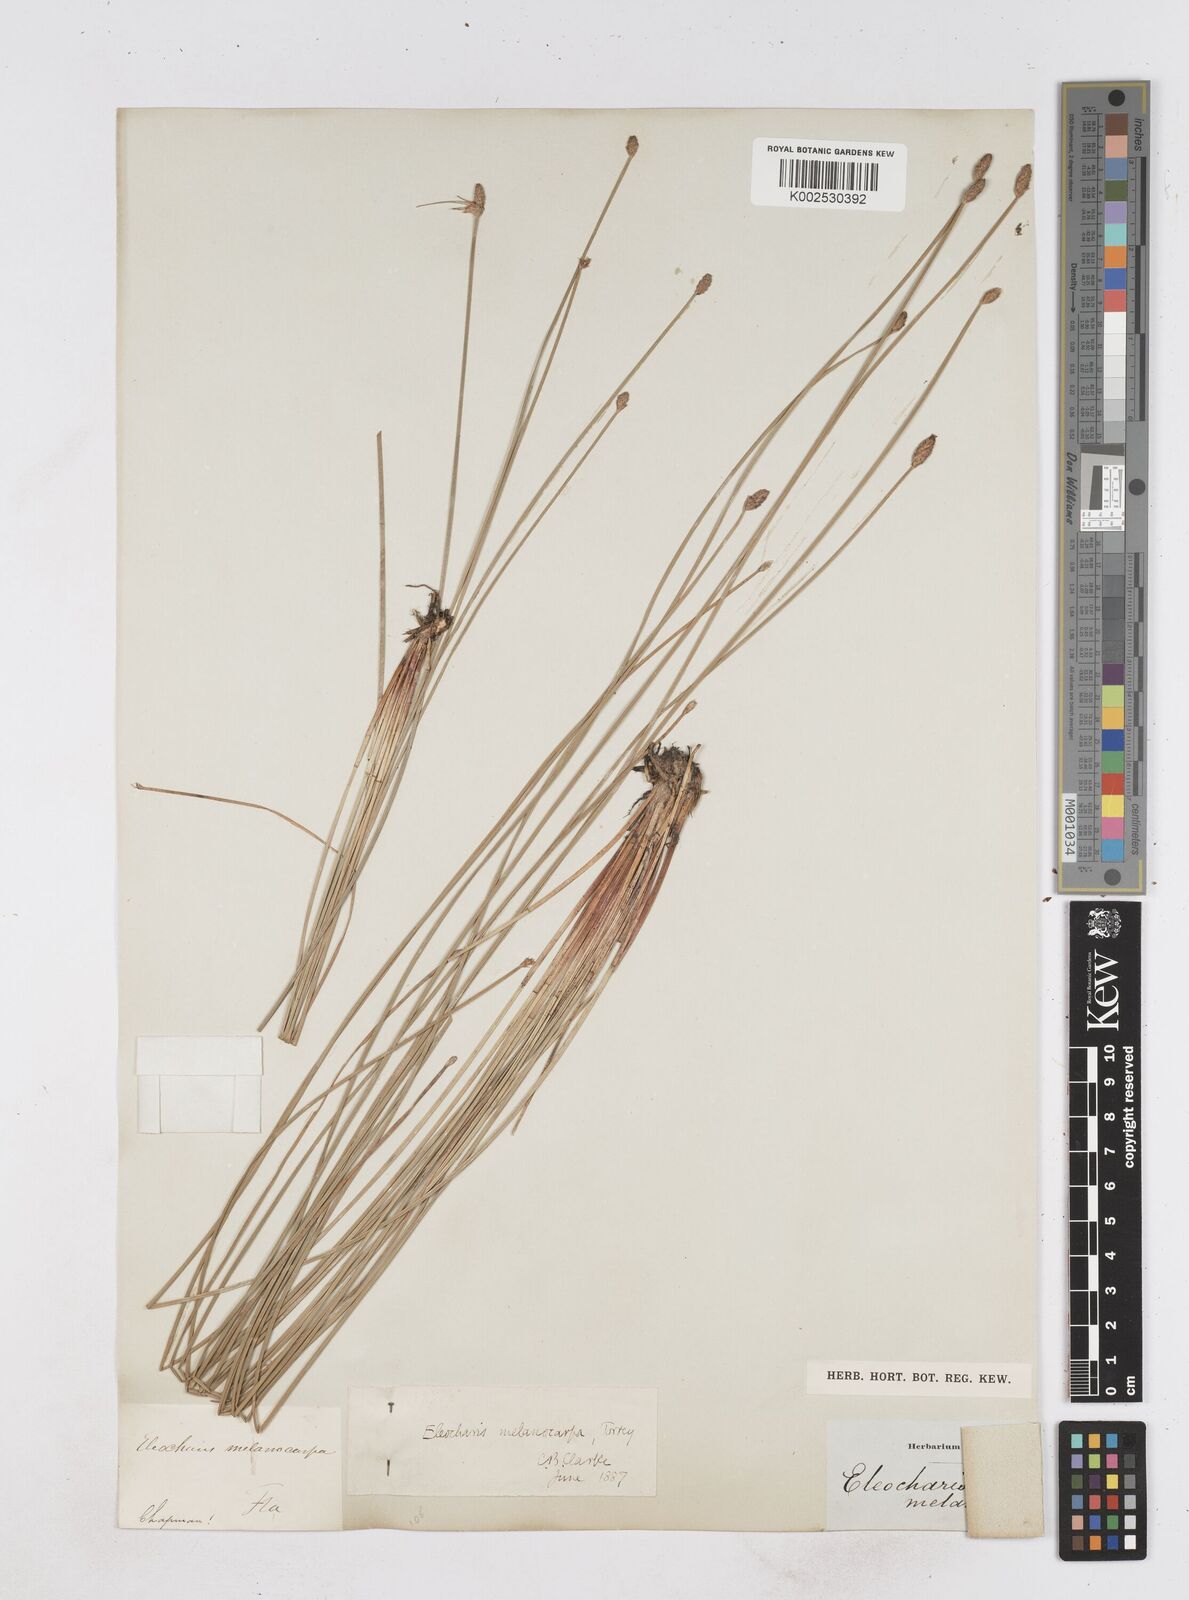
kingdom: Plantae
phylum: Tracheophyta
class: Liliopsida
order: Poales
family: Cyperaceae
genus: Eleocharis
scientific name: Eleocharis melanocarpa
